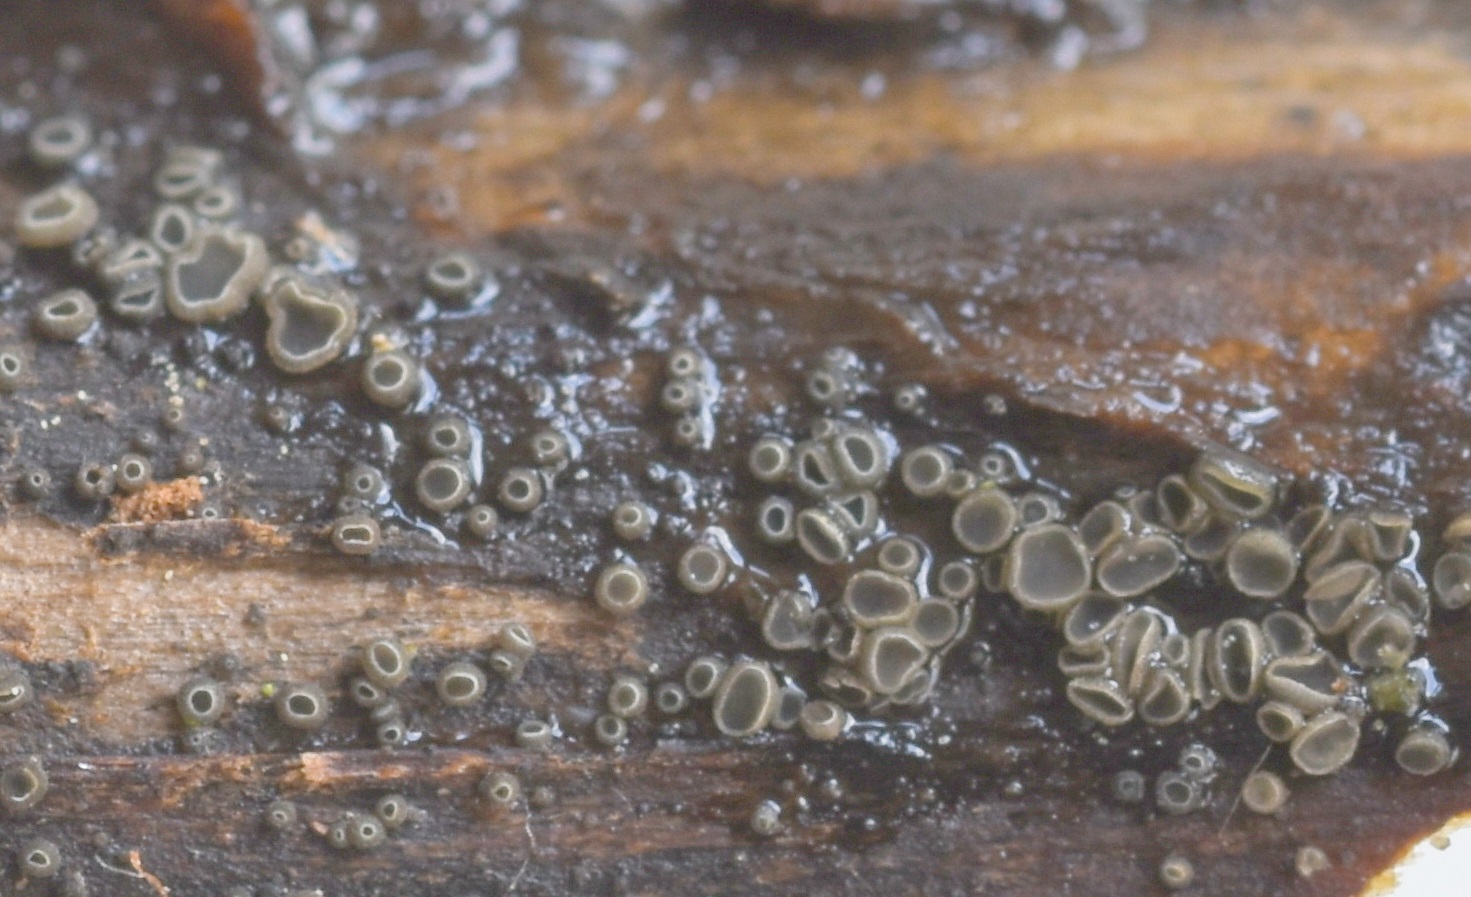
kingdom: Fungi
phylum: Ascomycota
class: Leotiomycetes
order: Helotiales
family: Ploettnerulaceae
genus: Pyrenopeziza
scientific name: Pyrenopeziza digitalina
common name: fingerbøl-kerneskive
